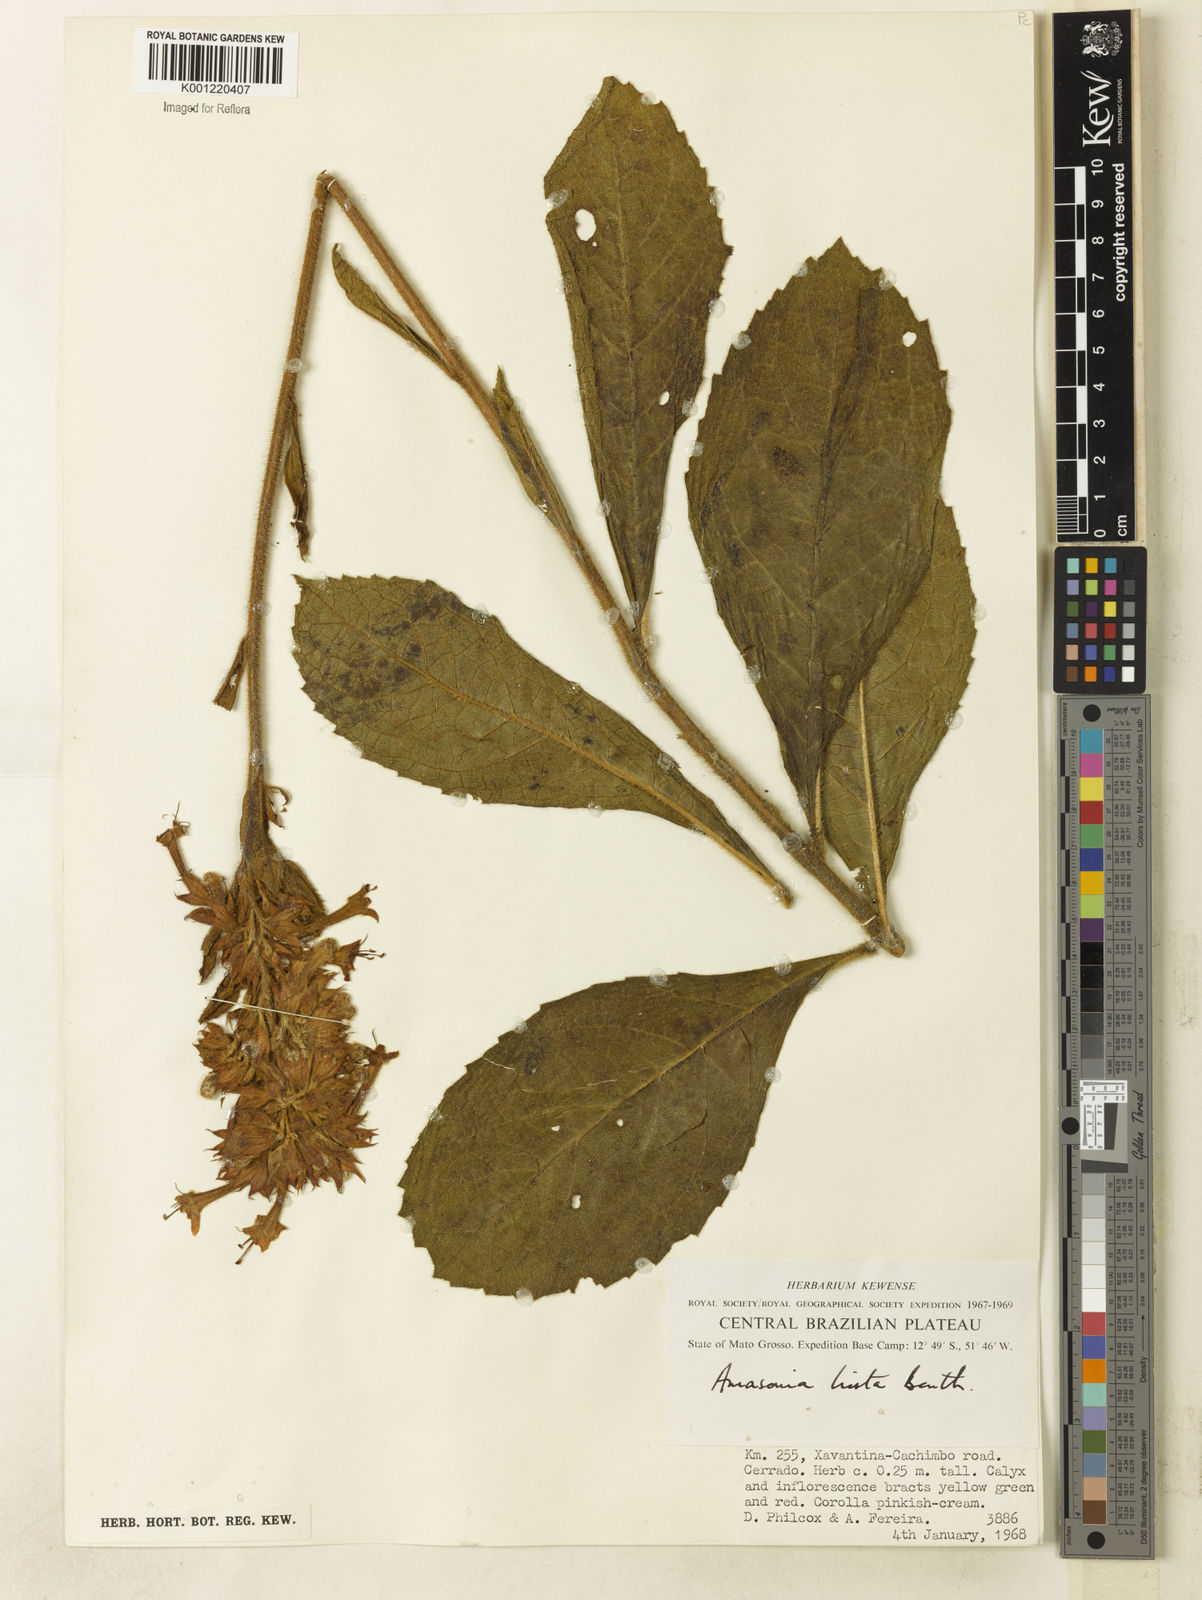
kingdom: Plantae
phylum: Tracheophyta
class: Magnoliopsida
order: Lamiales
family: Lamiaceae
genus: Amasonia
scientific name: Amasonia hirta
